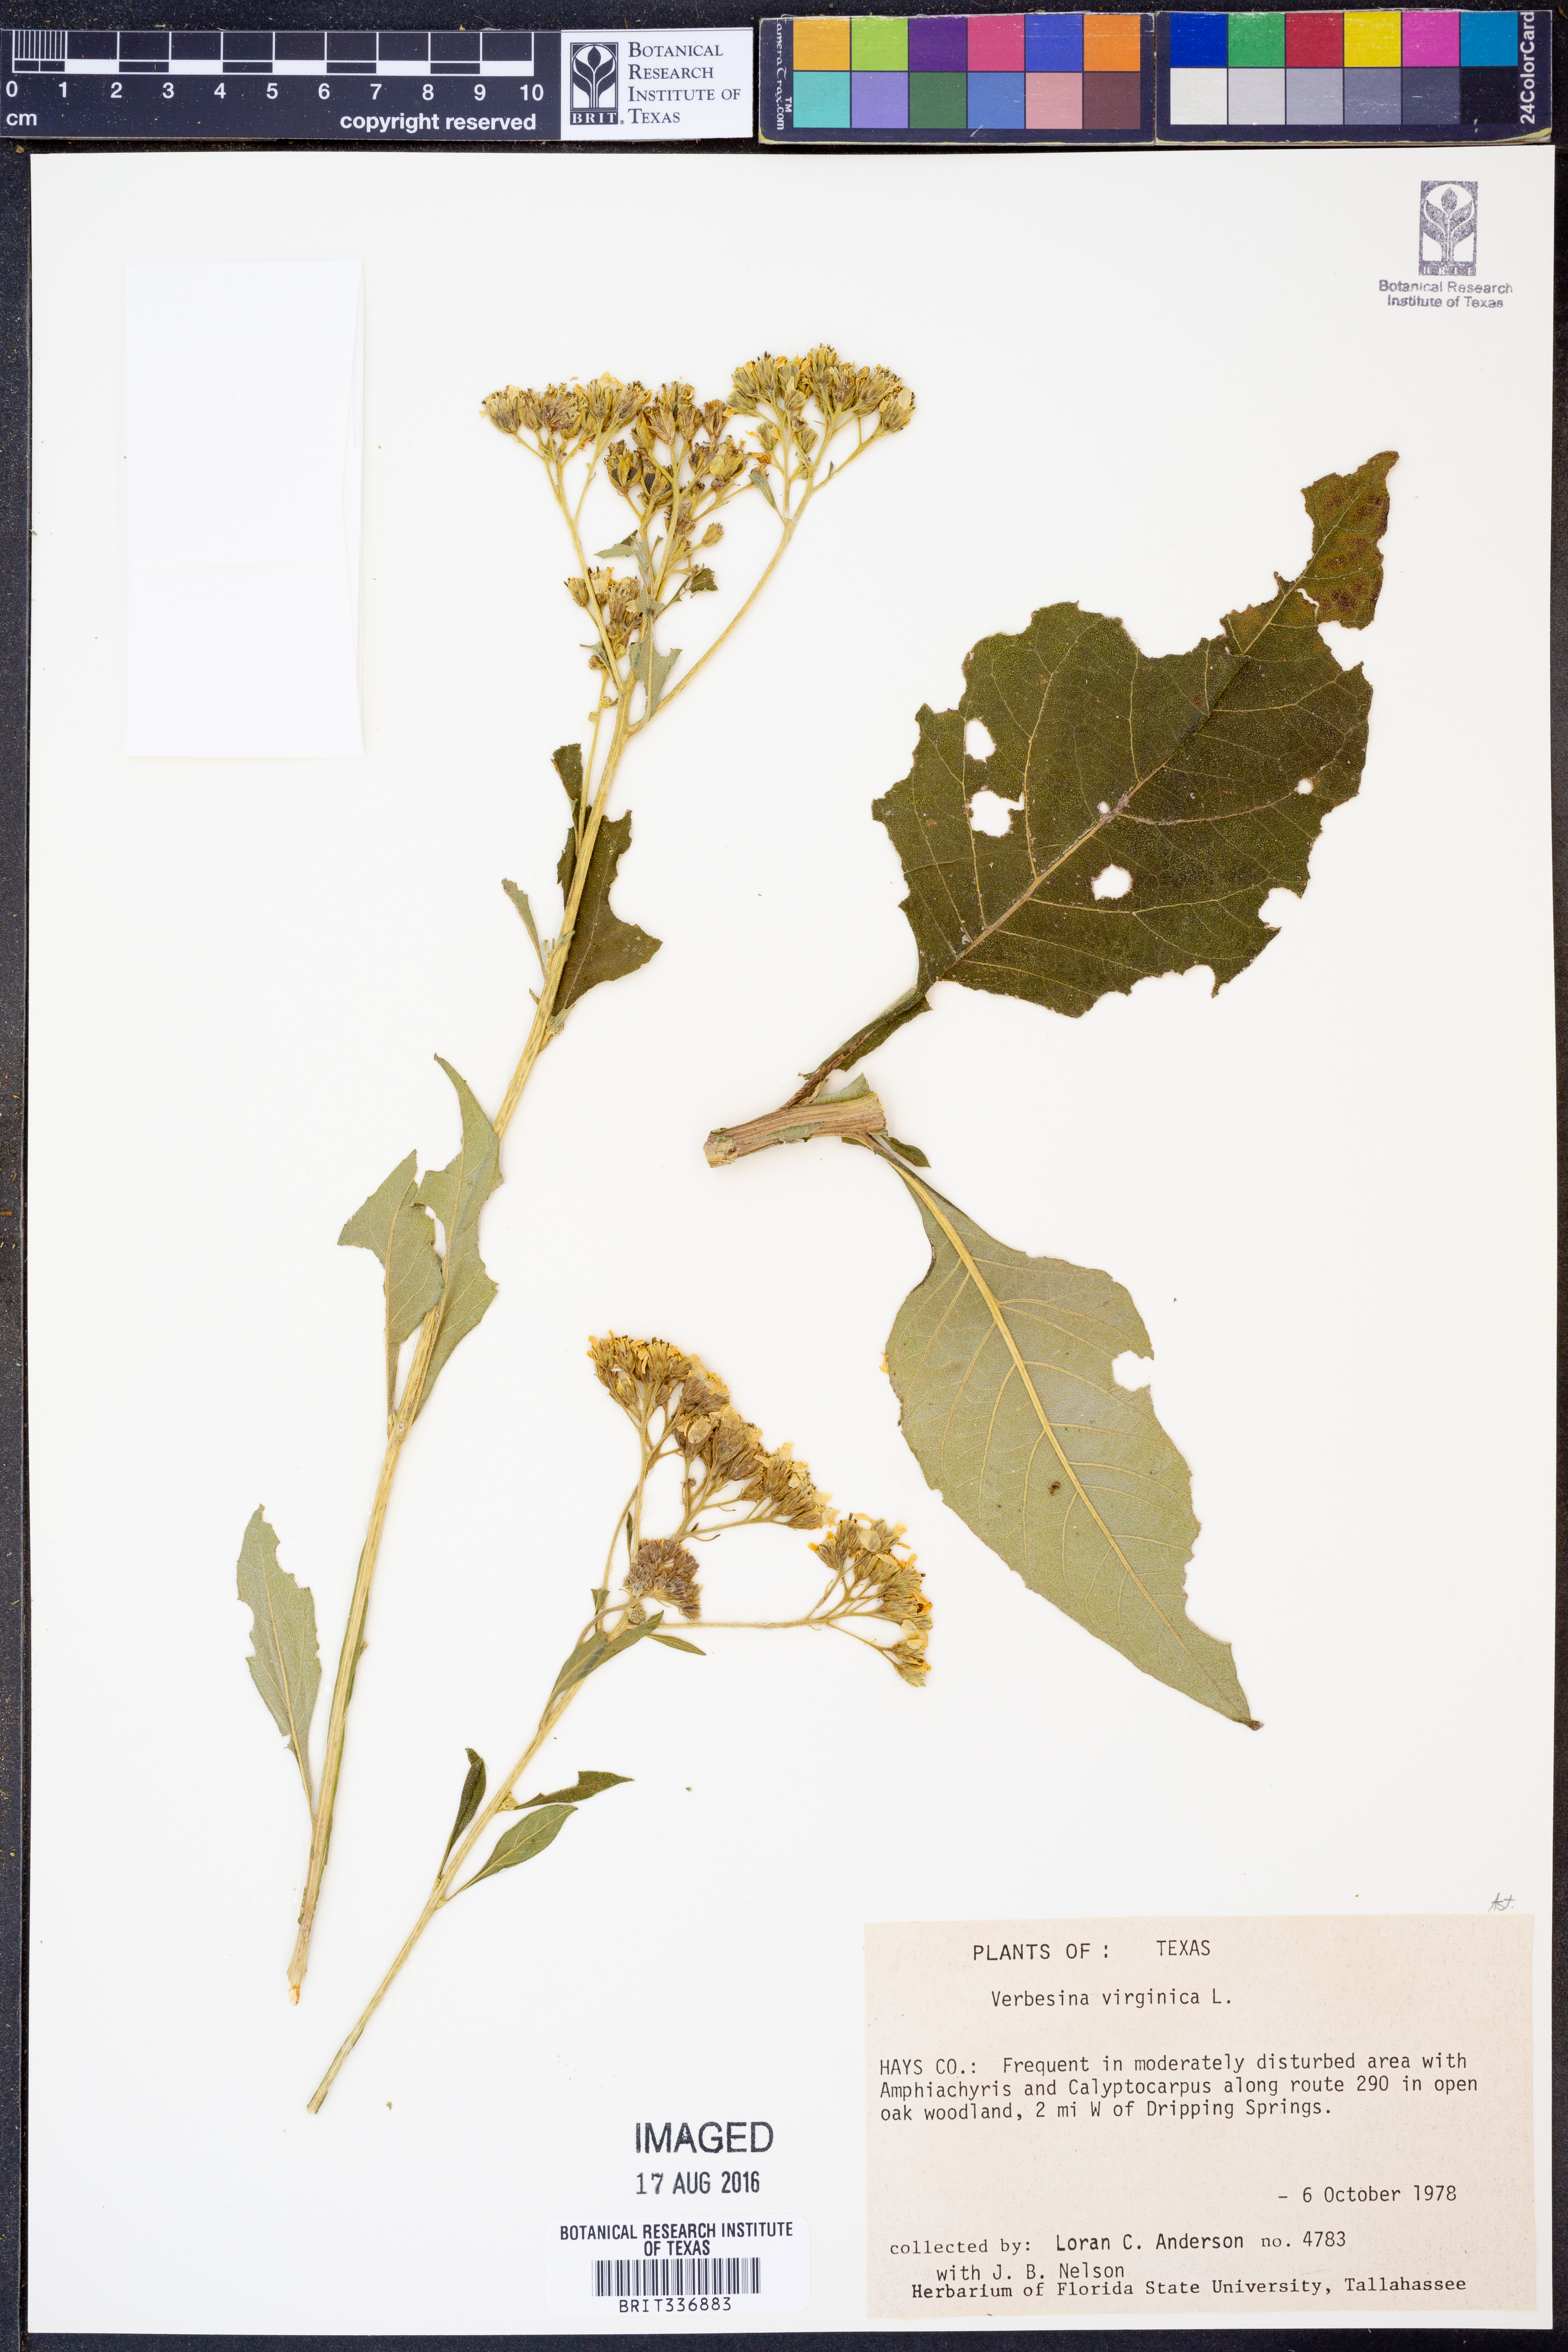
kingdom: Plantae
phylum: Tracheophyta
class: Magnoliopsida
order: Asterales
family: Asteraceae
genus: Verbesina
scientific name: Verbesina virginica
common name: Frostweed
